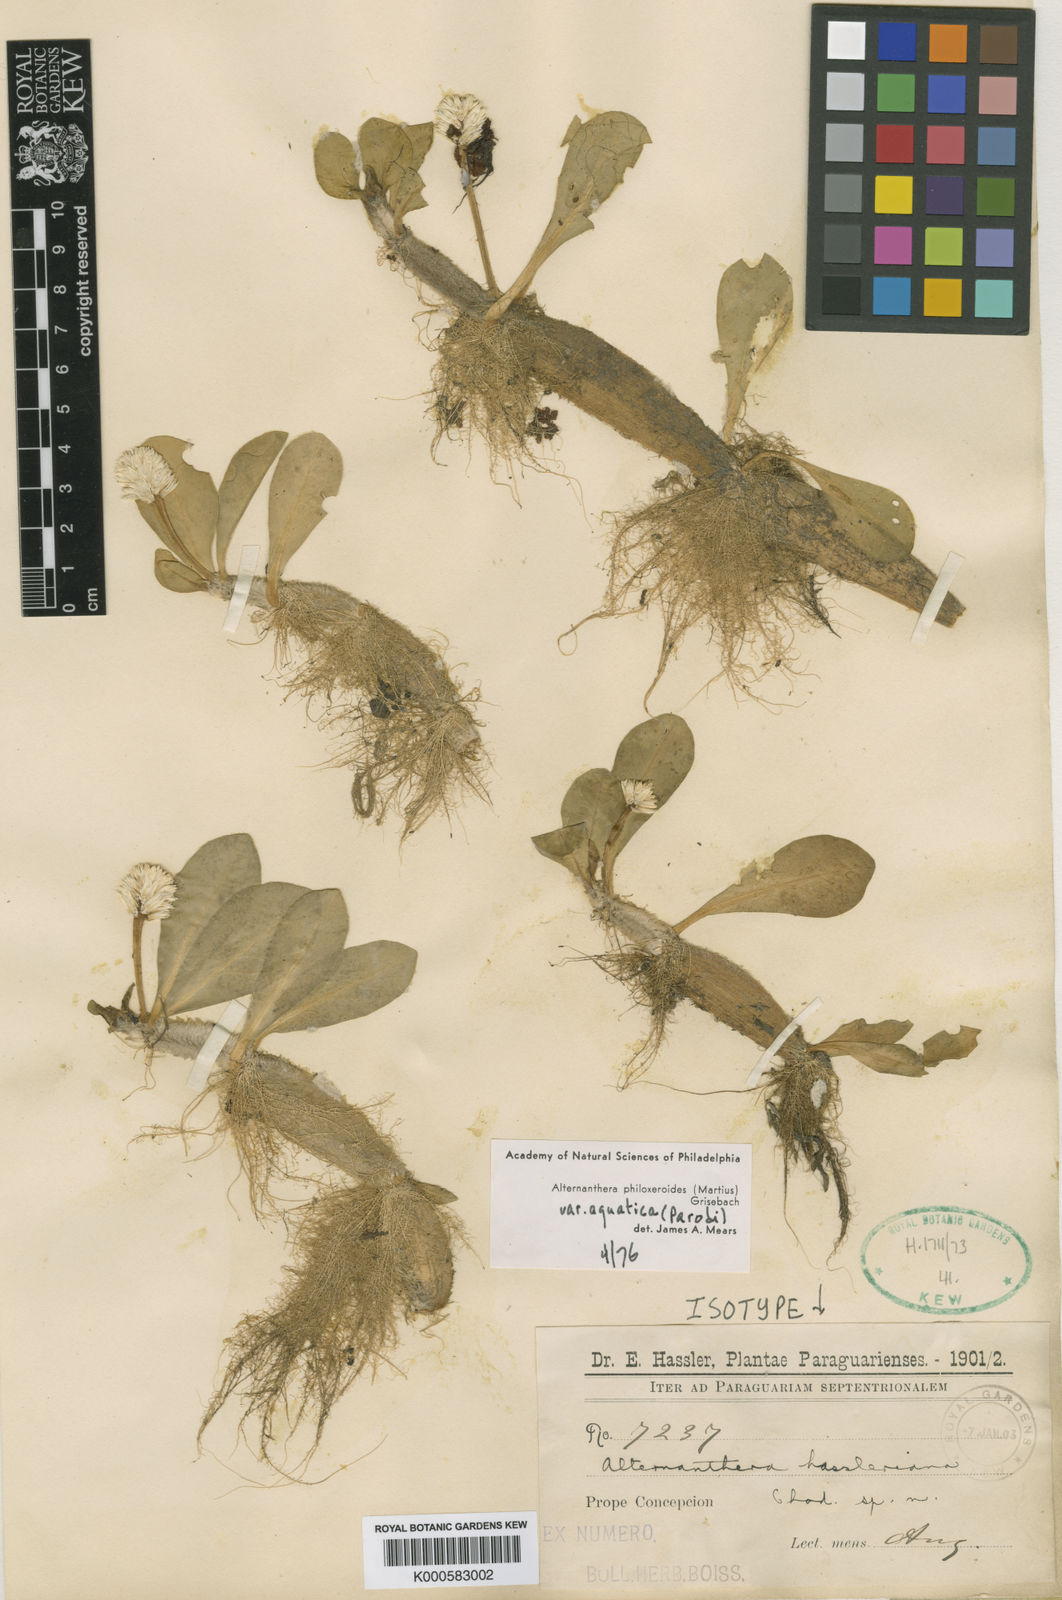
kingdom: Plantae
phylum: Tracheophyta
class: Magnoliopsida
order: Caryophyllales
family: Amaranthaceae
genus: Alternanthera
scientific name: Alternanthera philoxeroides
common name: Alligatorweed
